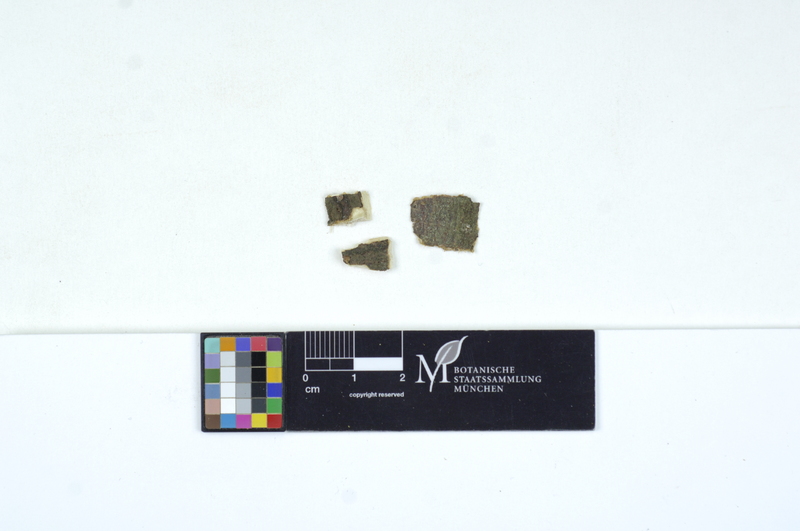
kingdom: Fungi
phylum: Basidiomycota
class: Tremellomycetes
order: Tremellales
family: Tremellaceae
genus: Tremella
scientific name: Tremella globispora
